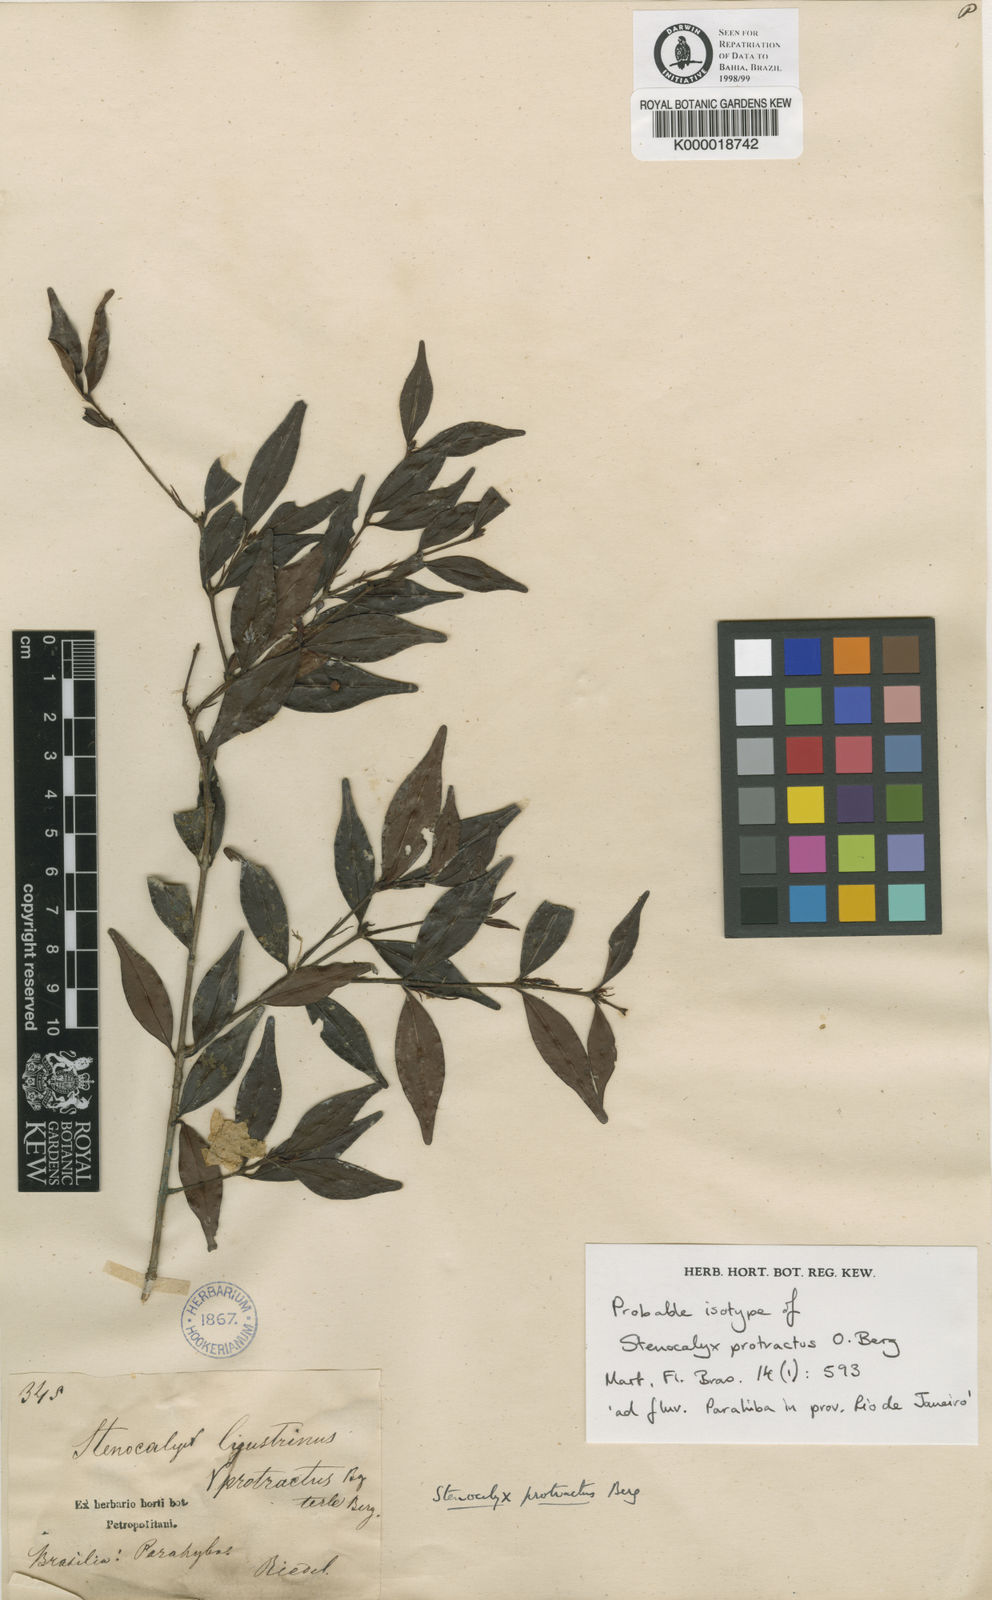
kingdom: Plantae
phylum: Tracheophyta
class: Magnoliopsida
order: Myrtales
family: Myrtaceae
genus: Eugenia
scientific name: Eugenia prostrata
